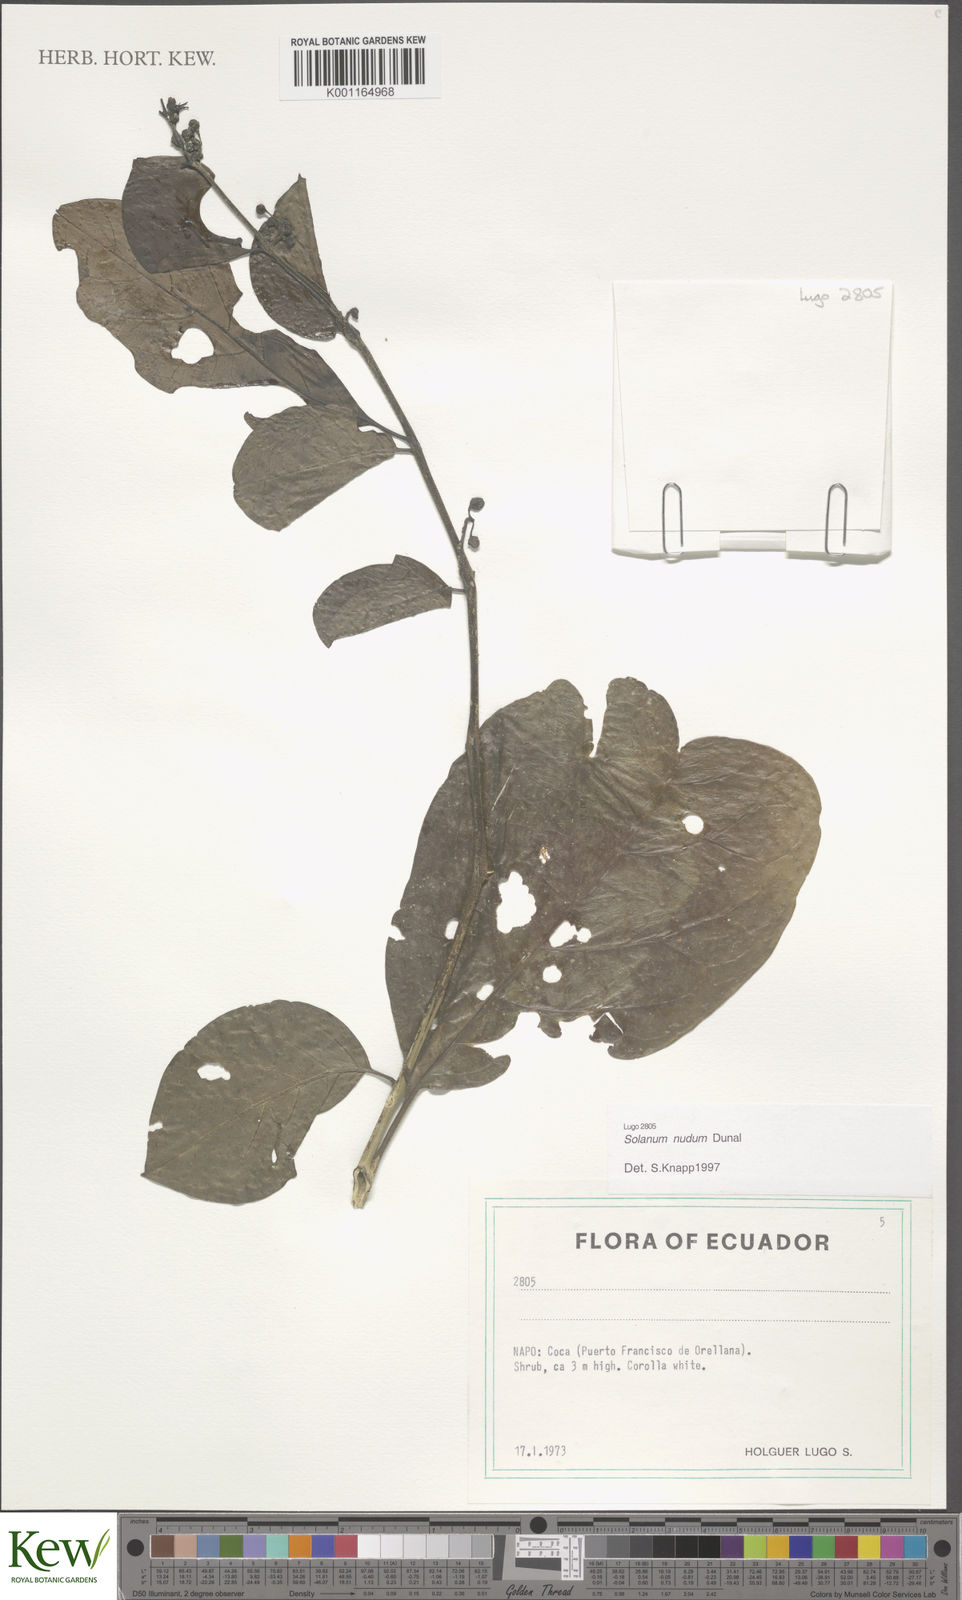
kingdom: Plantae
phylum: Tracheophyta
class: Magnoliopsida
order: Solanales
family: Solanaceae
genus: Solanum
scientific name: Solanum nudum
